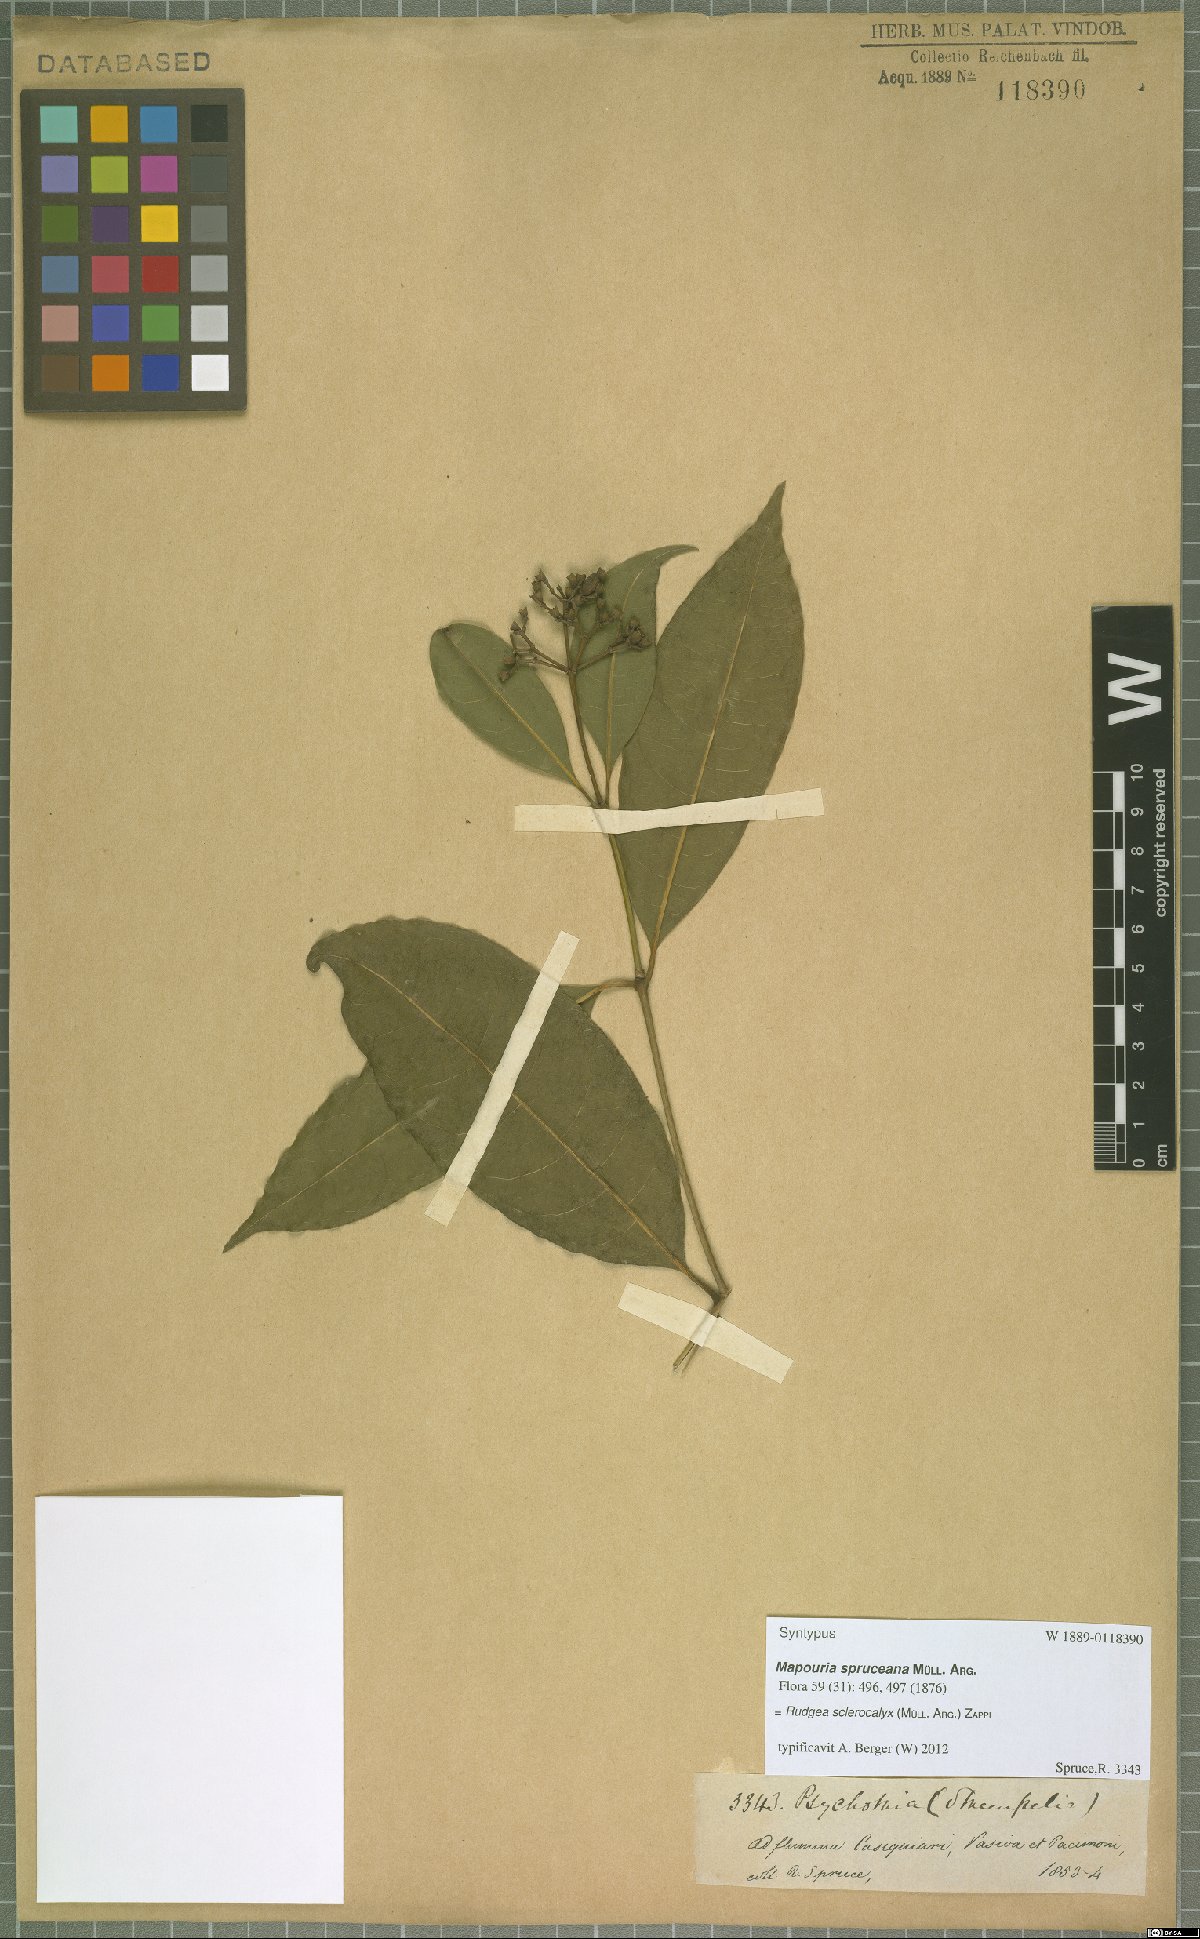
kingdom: Plantae
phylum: Tracheophyta
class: Magnoliopsida
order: Gentianales
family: Rubiaceae
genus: Rudgea
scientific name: Rudgea sclerocalyx
